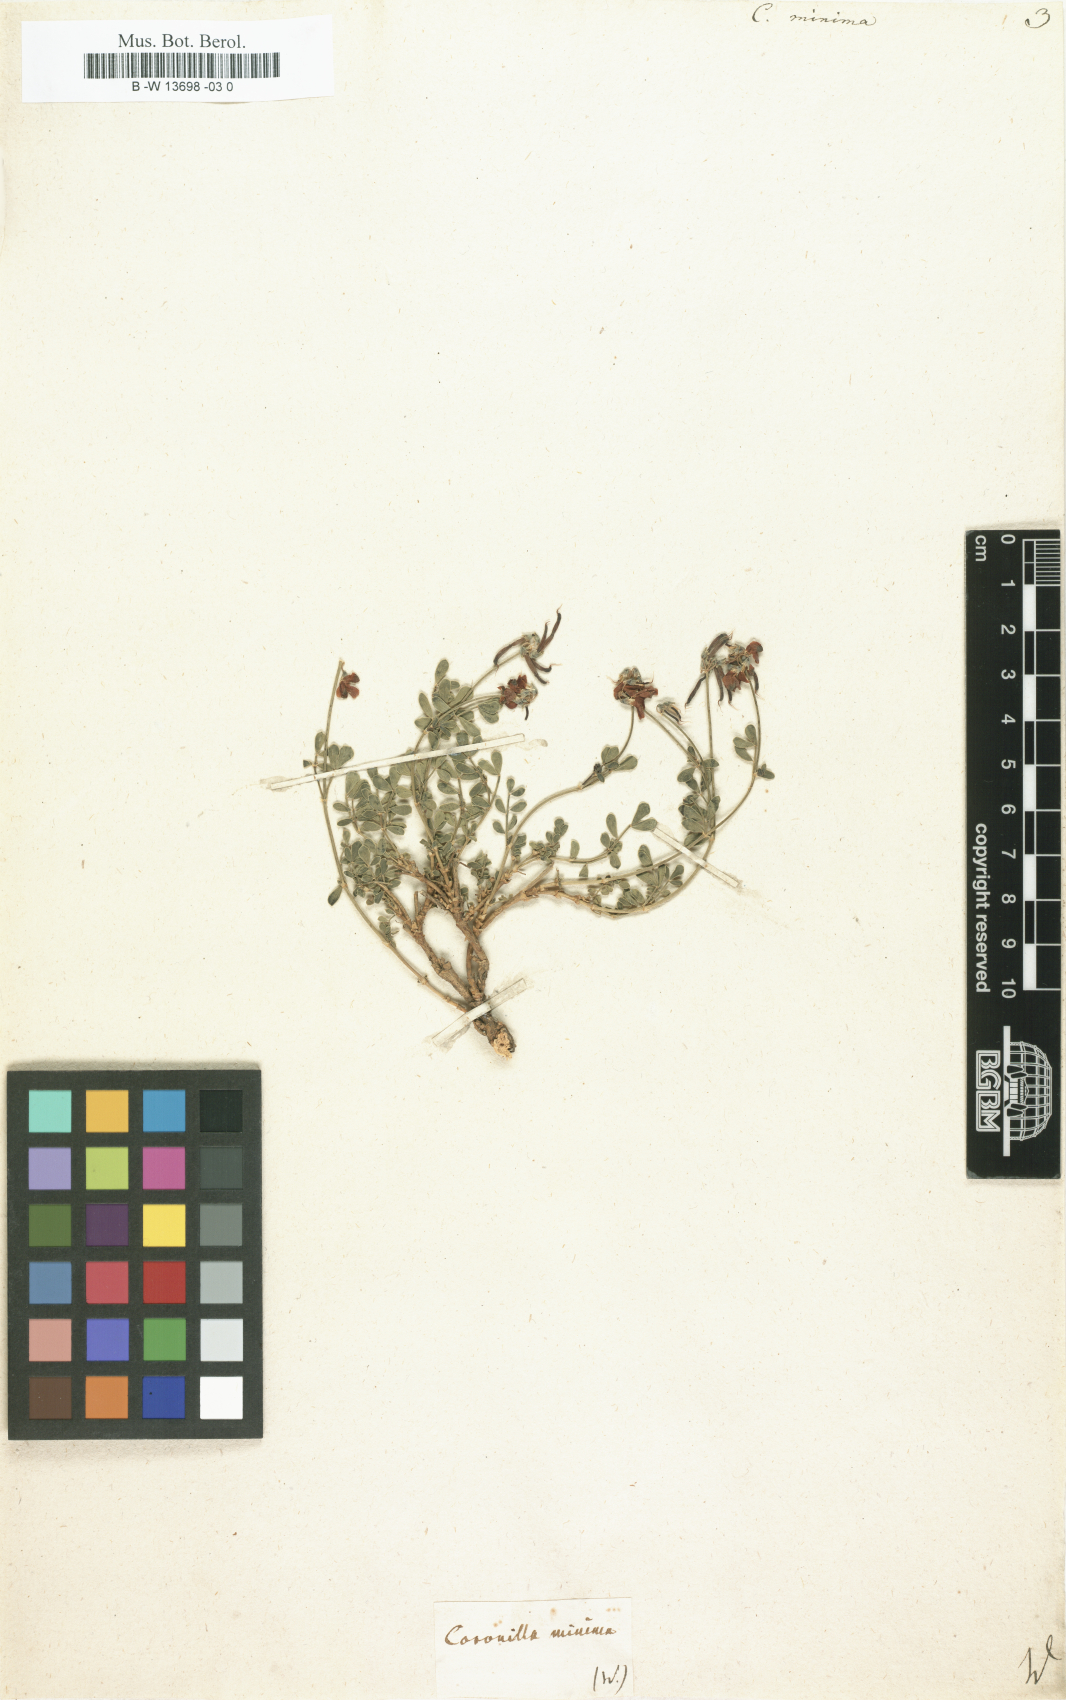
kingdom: Plantae
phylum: Tracheophyta
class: Magnoliopsida
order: Fabales
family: Fabaceae
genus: Coronilla
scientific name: Coronilla minima
